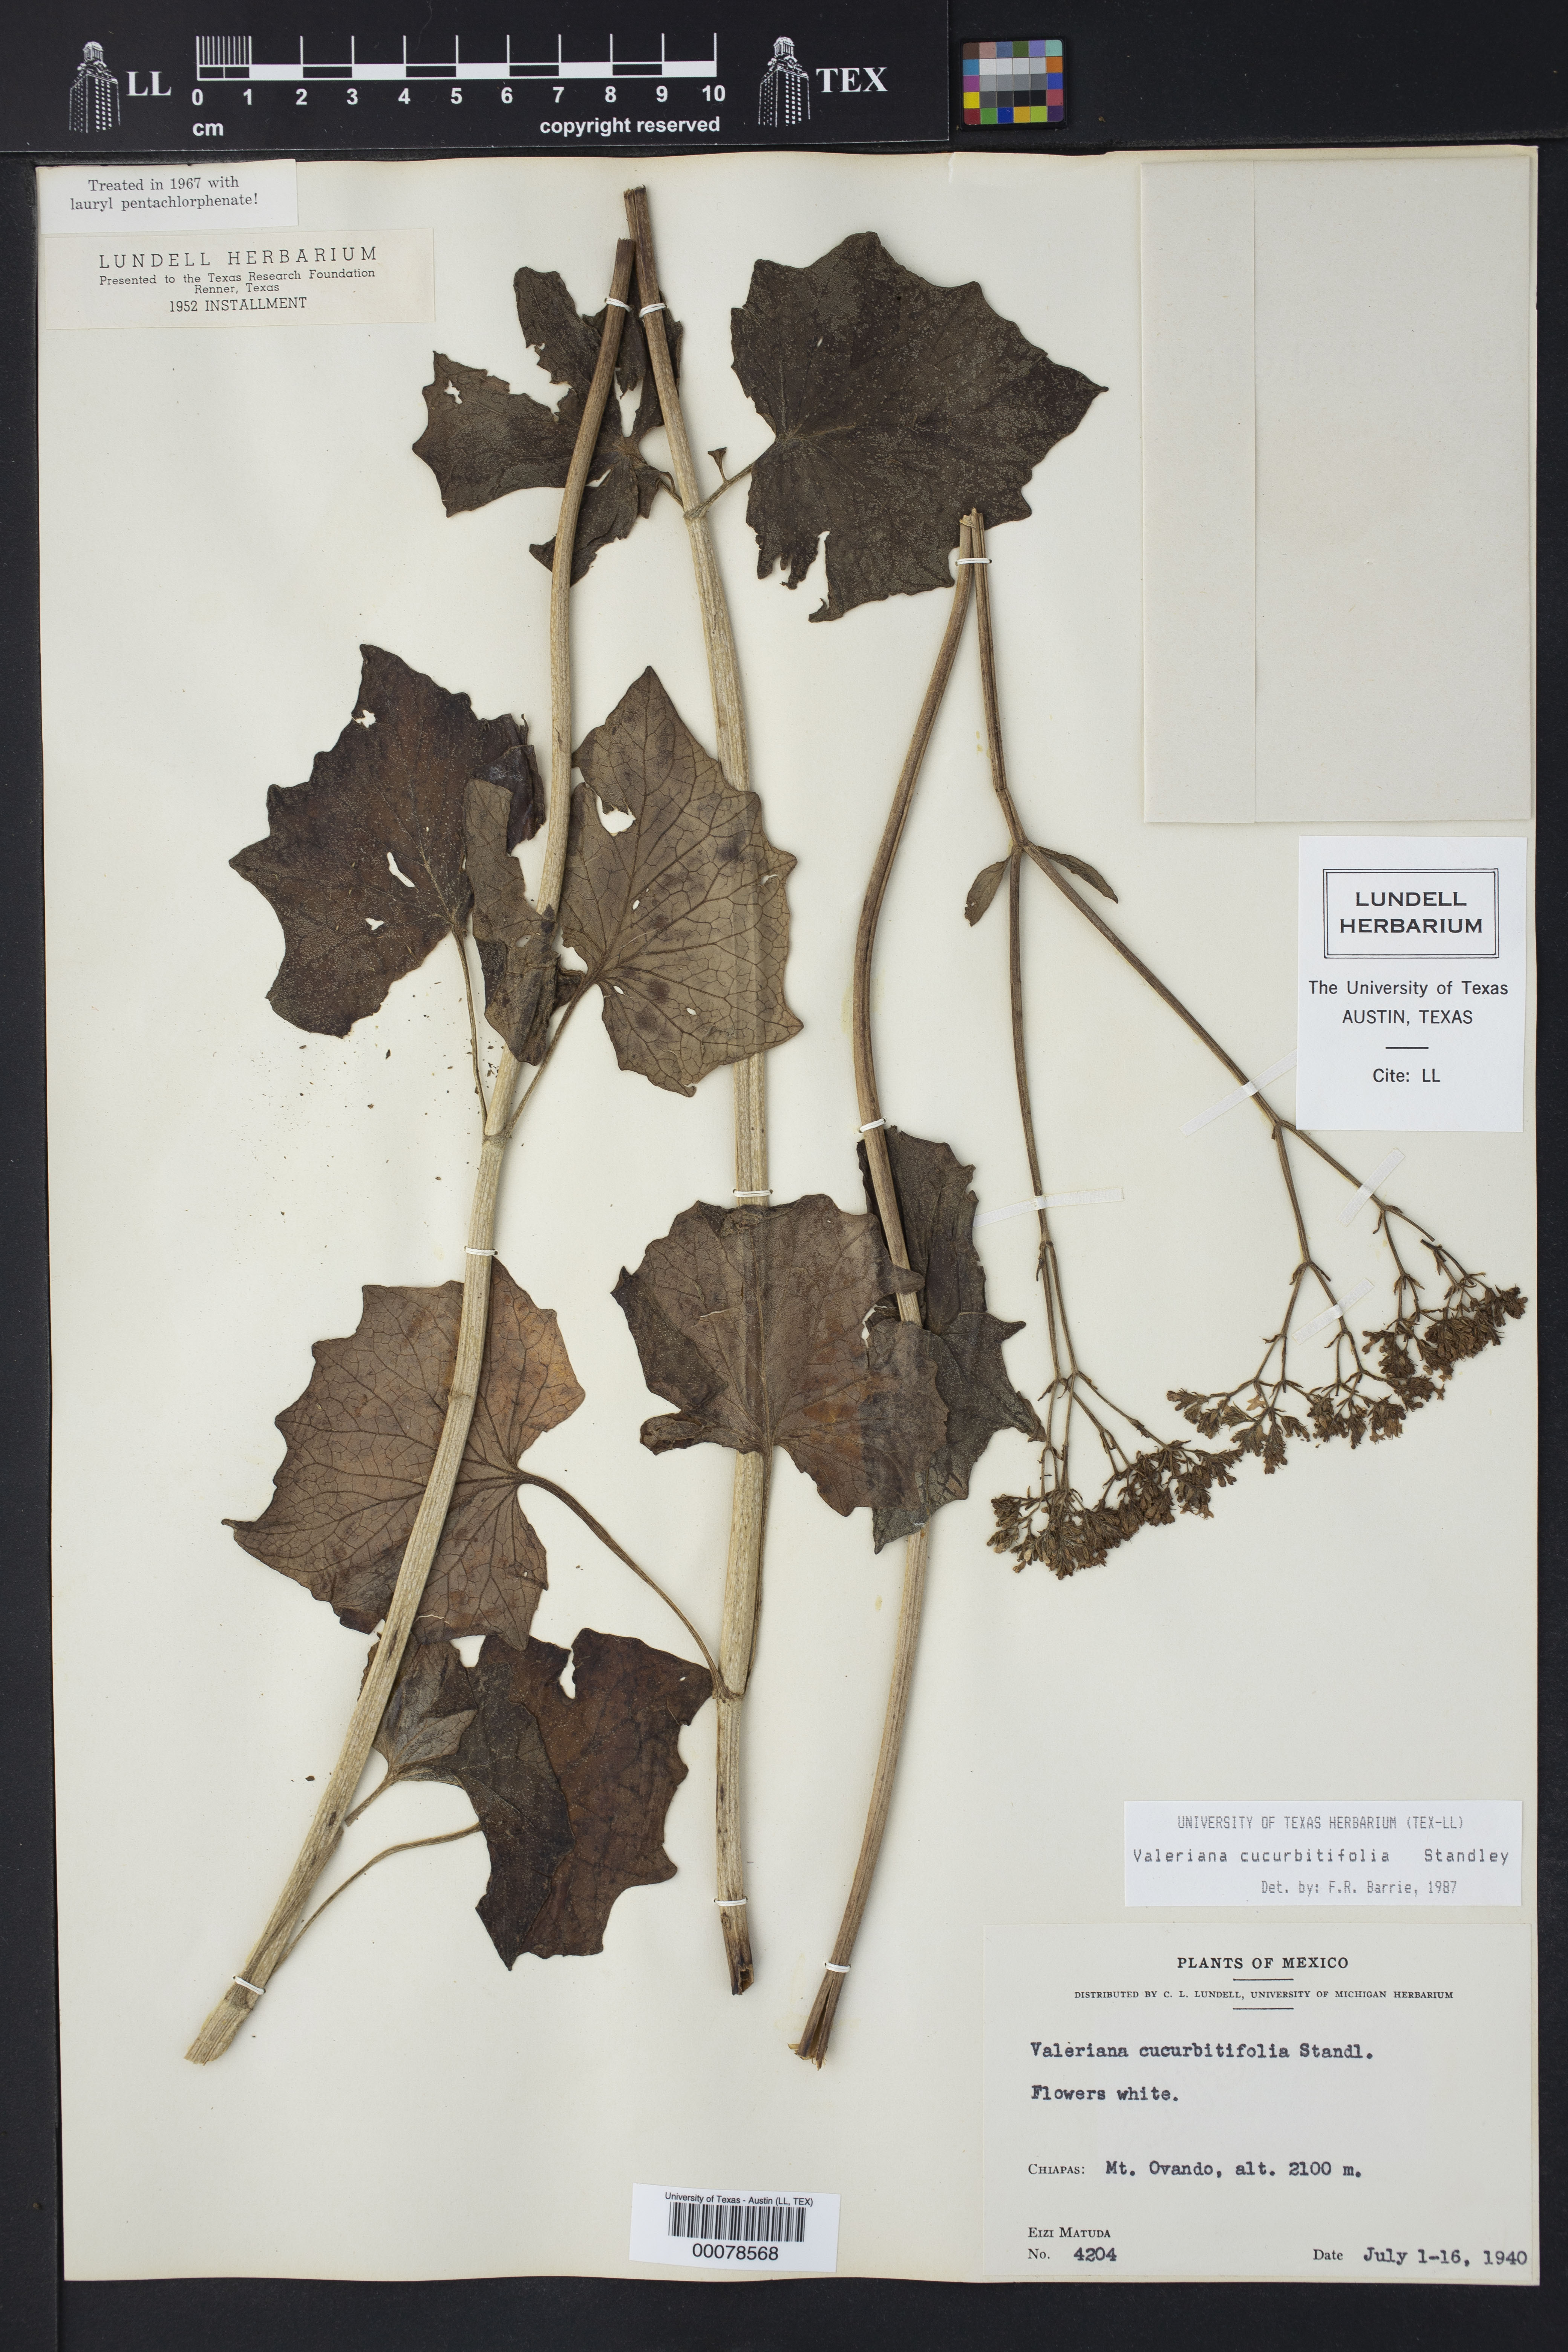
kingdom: Plantae
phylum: Tracheophyta
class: Magnoliopsida
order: Dipsacales
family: Caprifoliaceae
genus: Valeriana
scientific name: Valeriana cucurbitifolia
